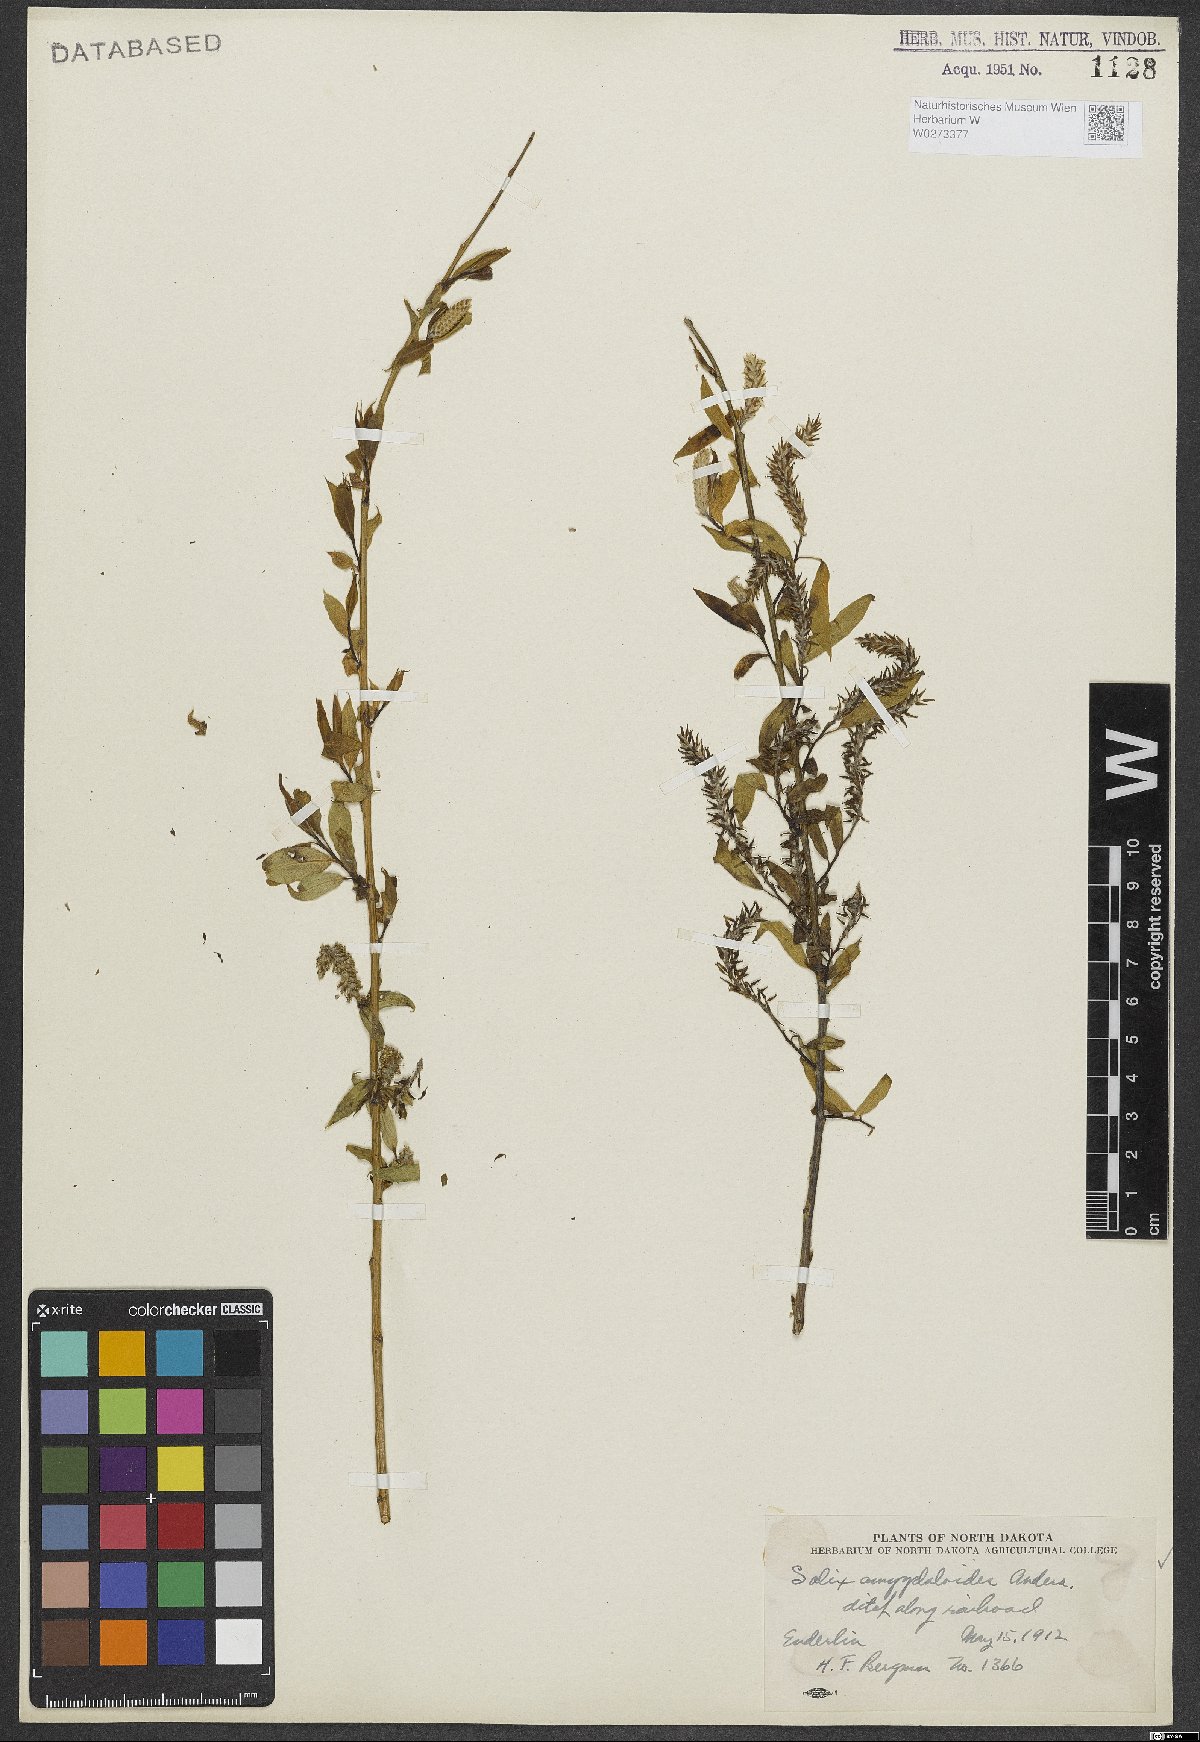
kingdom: Plantae
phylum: Tracheophyta
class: Magnoliopsida
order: Malpighiales
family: Salicaceae
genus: Salix
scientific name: Salix amygdaloides
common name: Peach leaf willow
